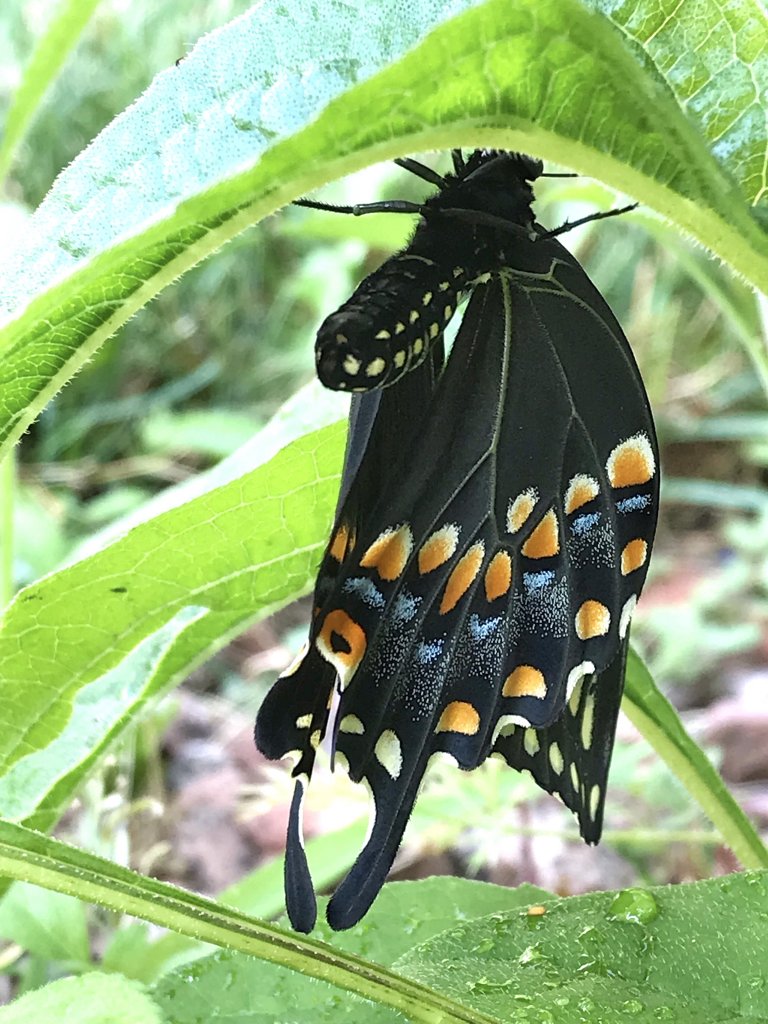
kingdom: Animalia
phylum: Arthropoda
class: Insecta
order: Lepidoptera
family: Papilionidae
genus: Papilio
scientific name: Papilio polyxenes
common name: Black Swallowtail
